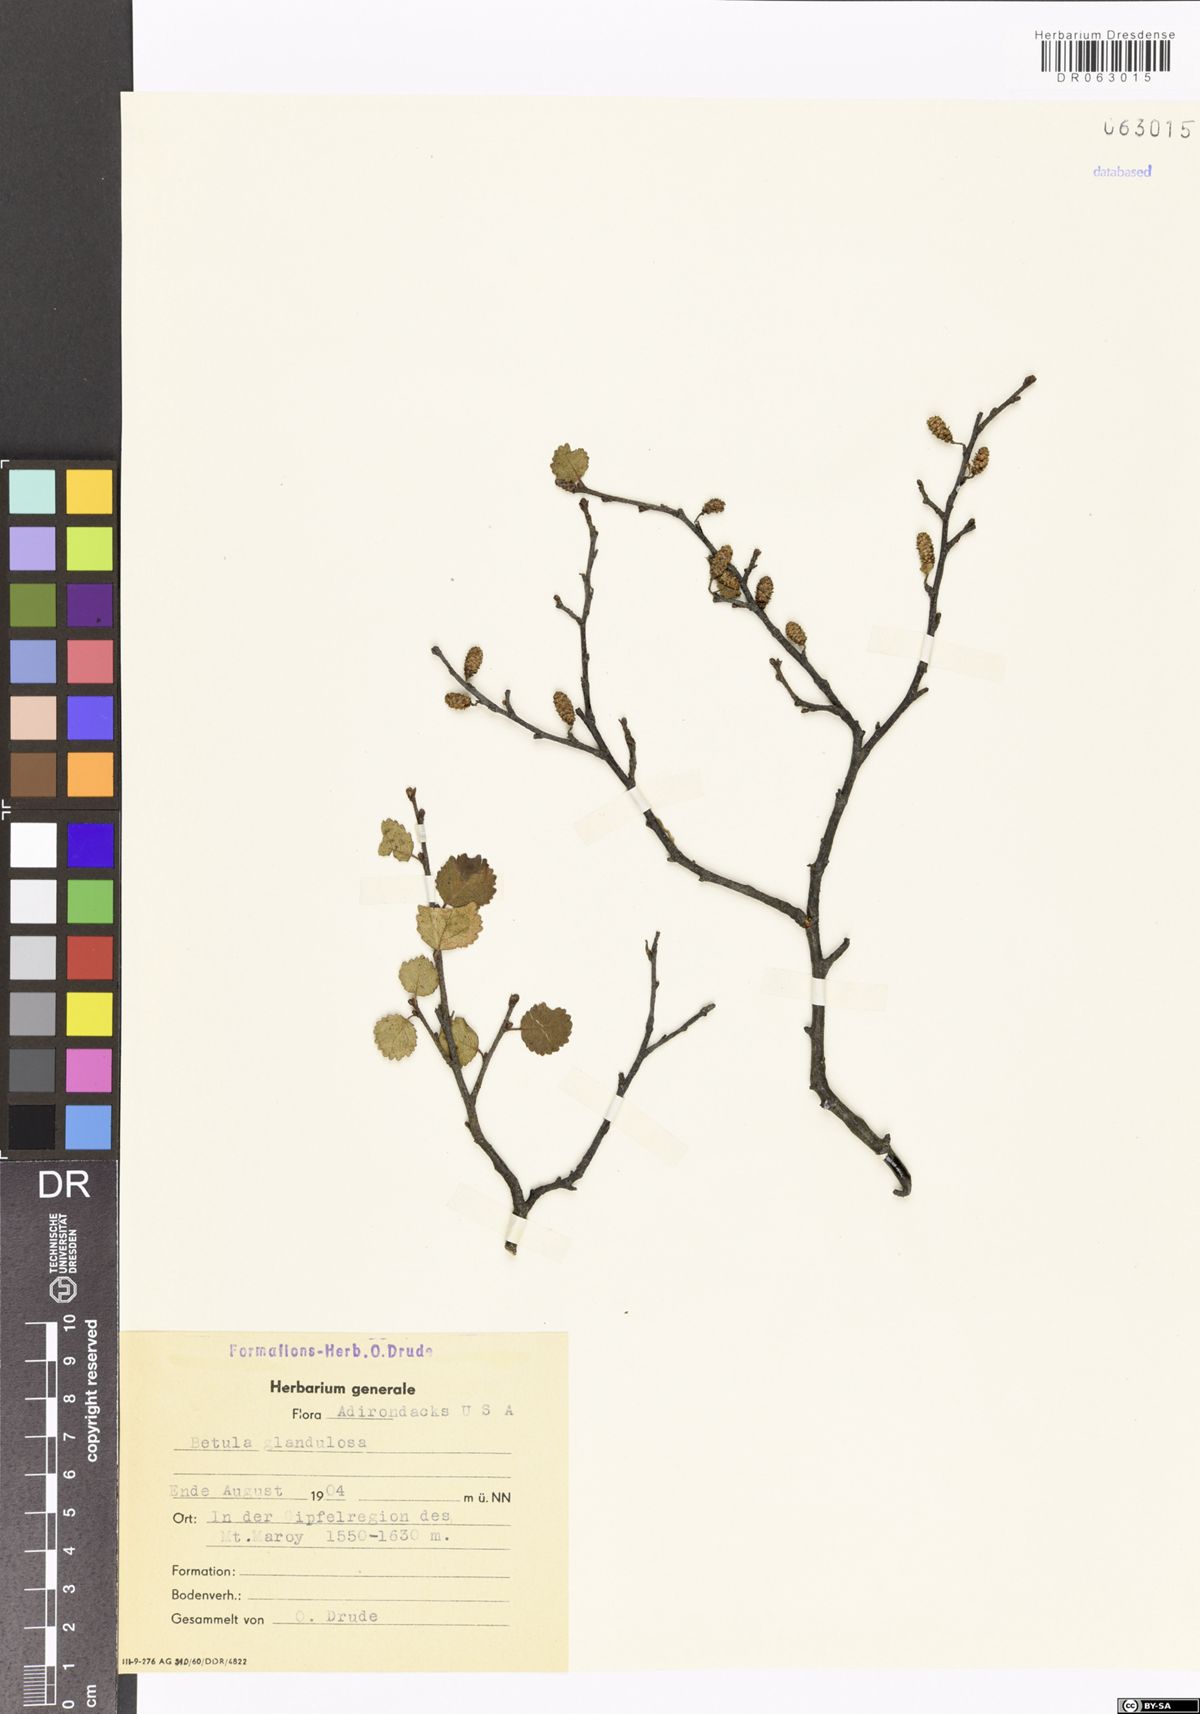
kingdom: Plantae
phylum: Tracheophyta
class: Magnoliopsida
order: Fagales
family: Betulaceae
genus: Betula
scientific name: Betula glandulosa
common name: Dwarf birch
